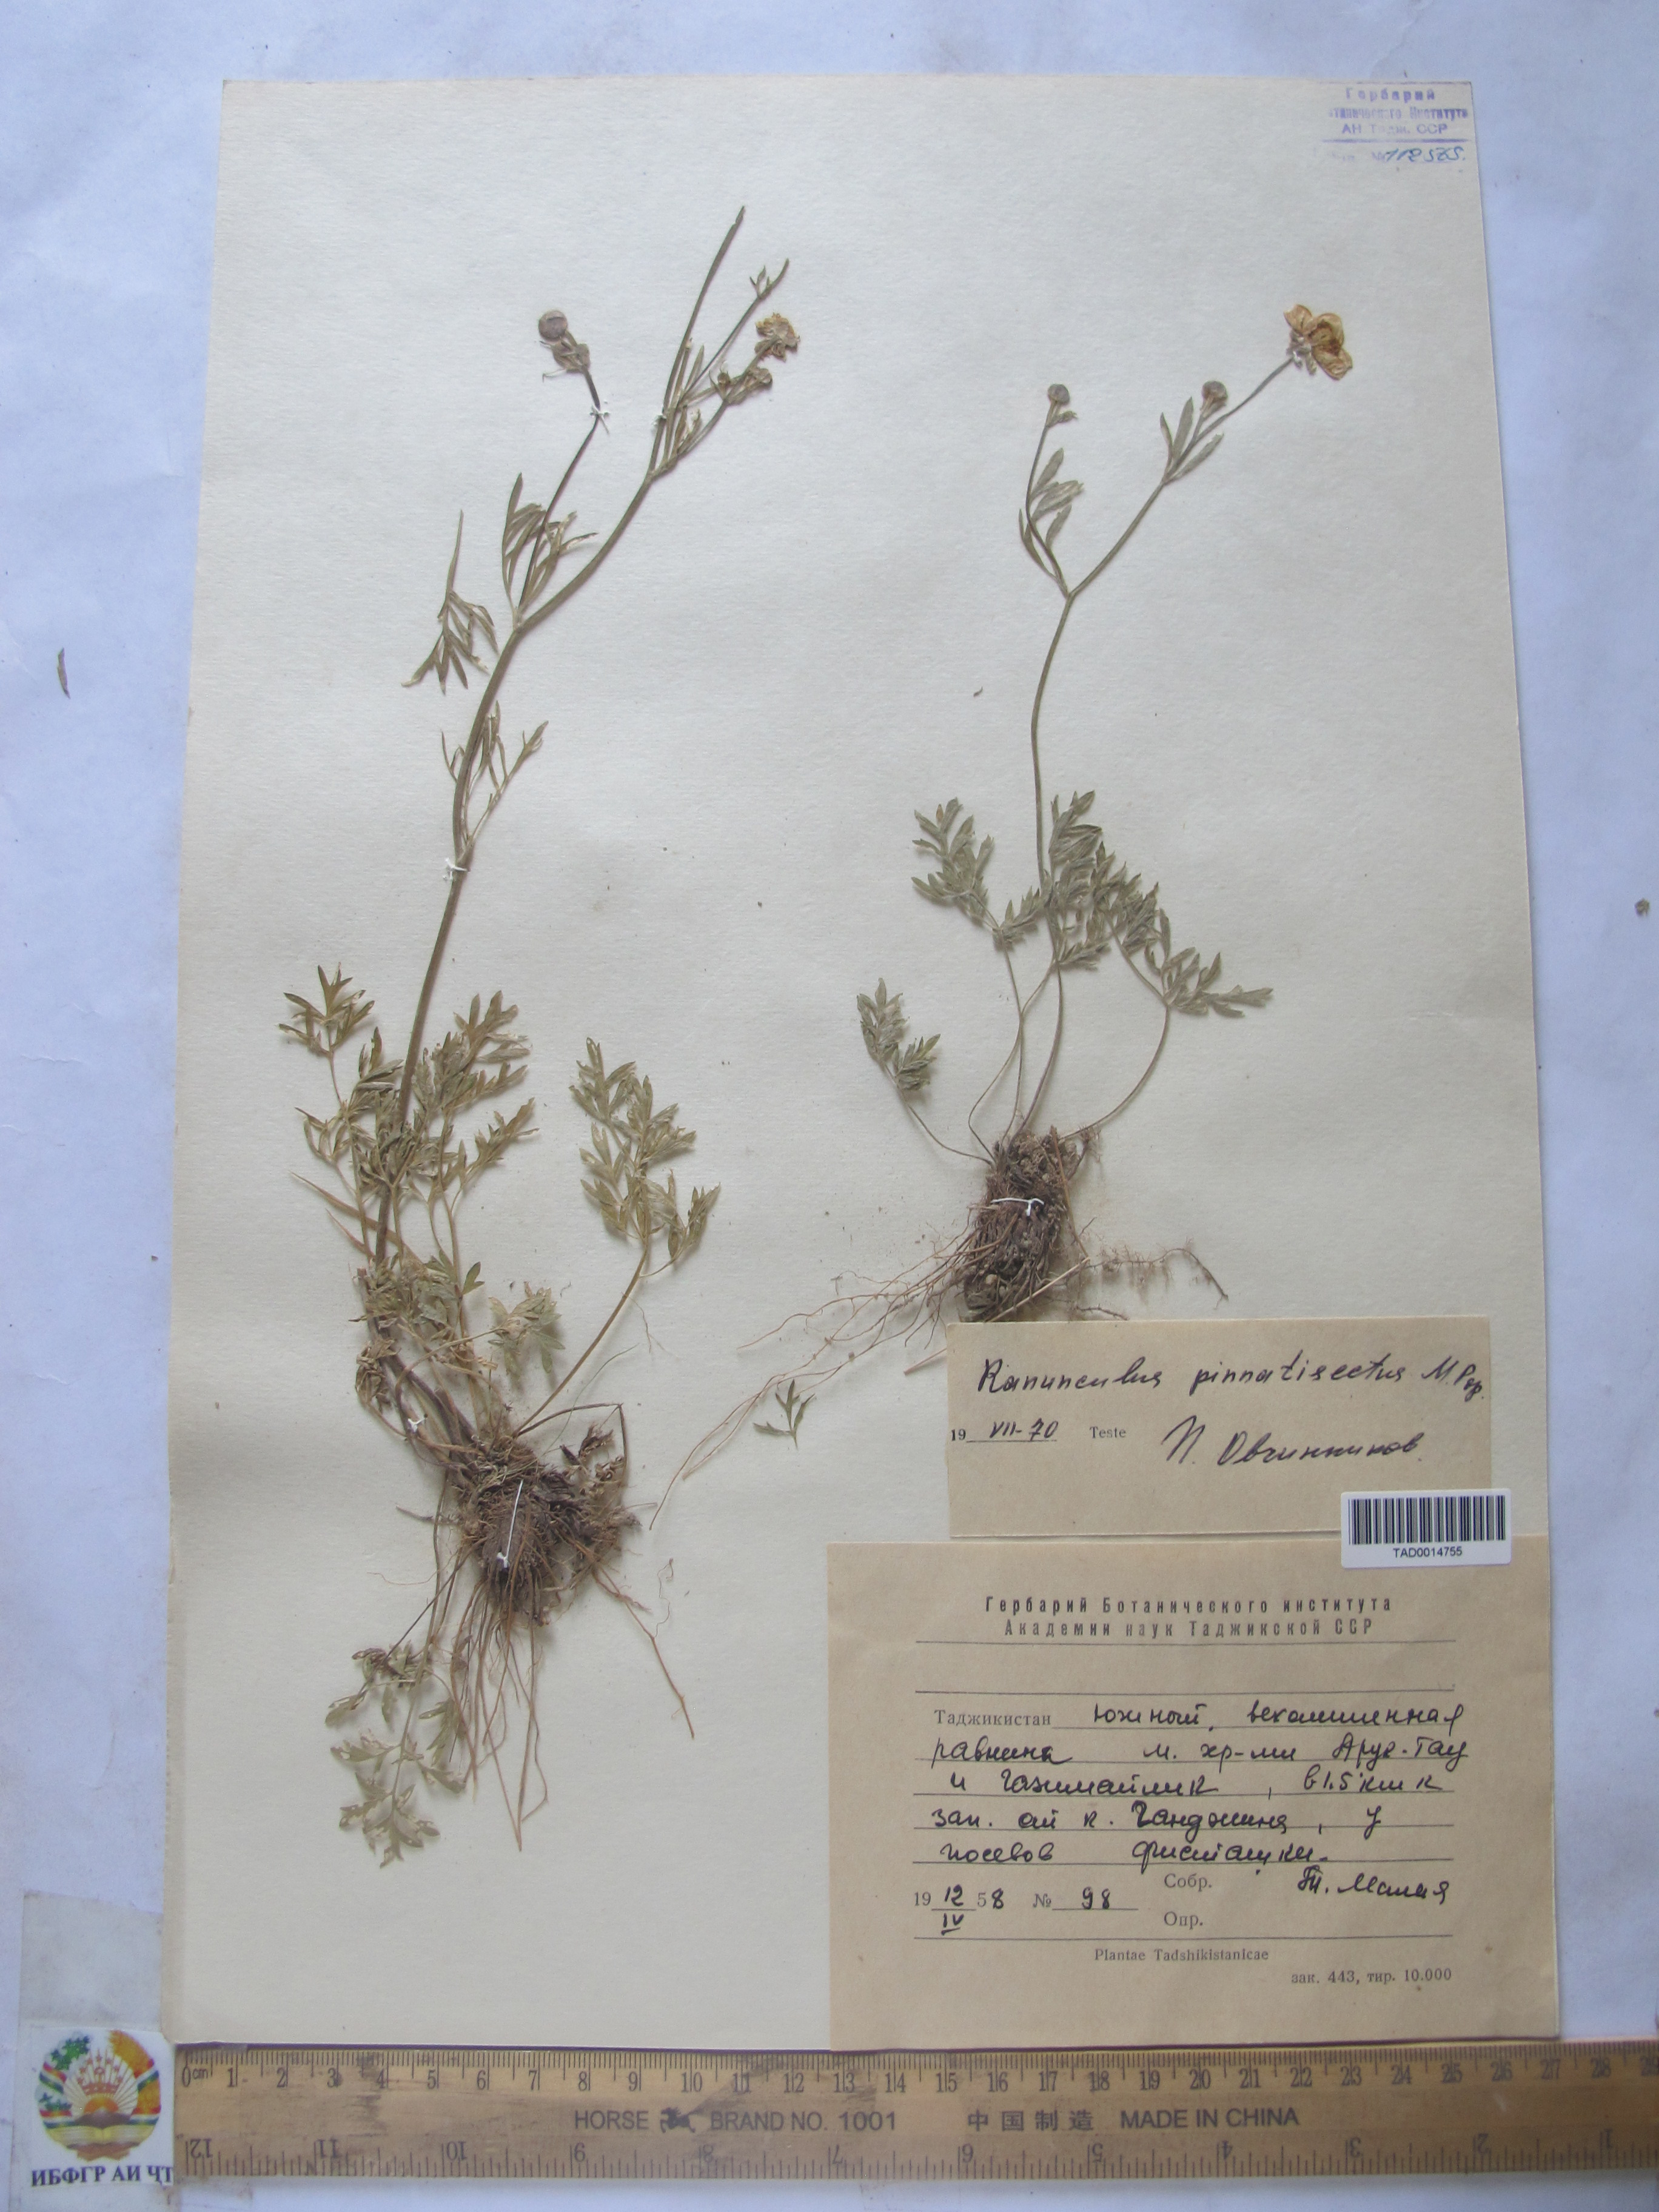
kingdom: Plantae
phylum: Tracheophyta
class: Magnoliopsida
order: Ranunculales
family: Ranunculaceae
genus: Ranunculus
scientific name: Ranunculus pinnatisectus
